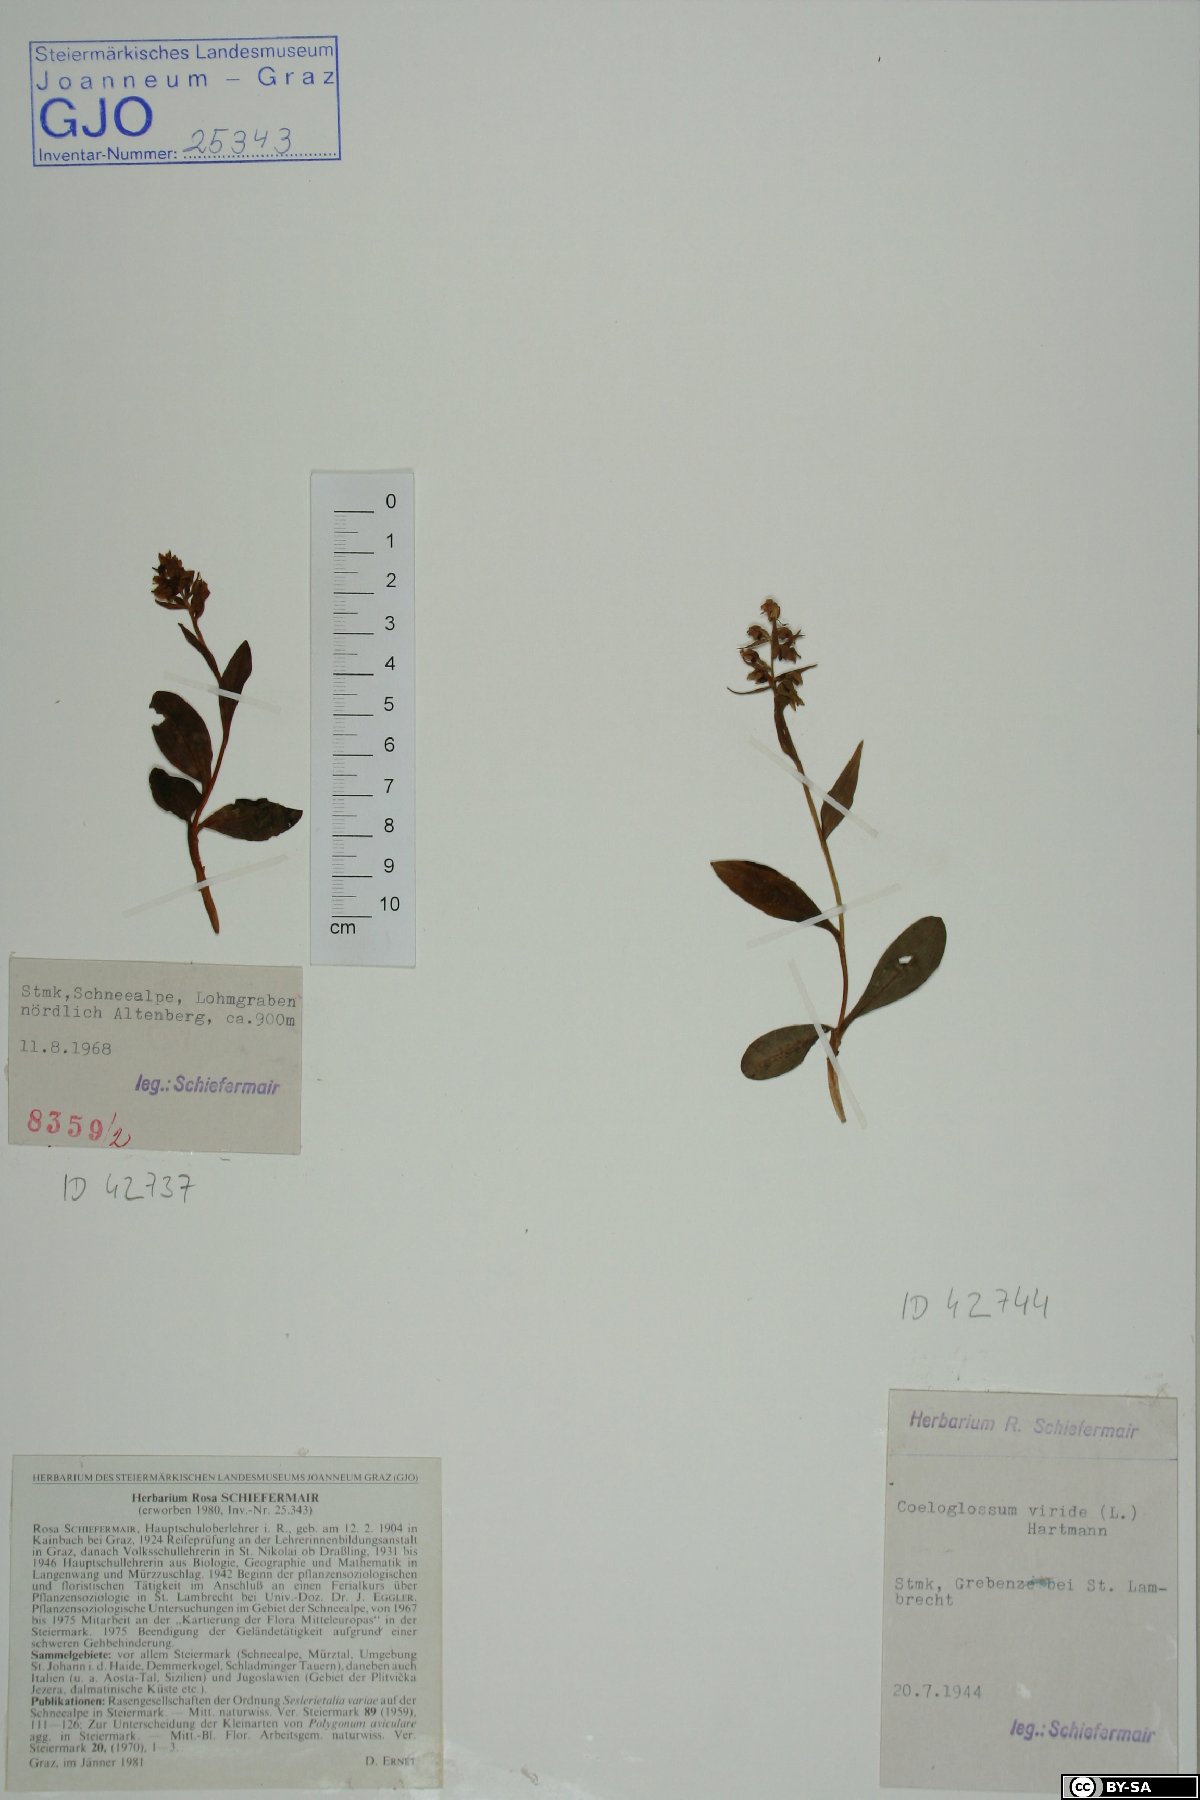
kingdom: Plantae
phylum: Tracheophyta
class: Liliopsida
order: Asparagales
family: Orchidaceae
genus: Dactylorhiza
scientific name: Dactylorhiza viridis
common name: Longbract frog orchid
